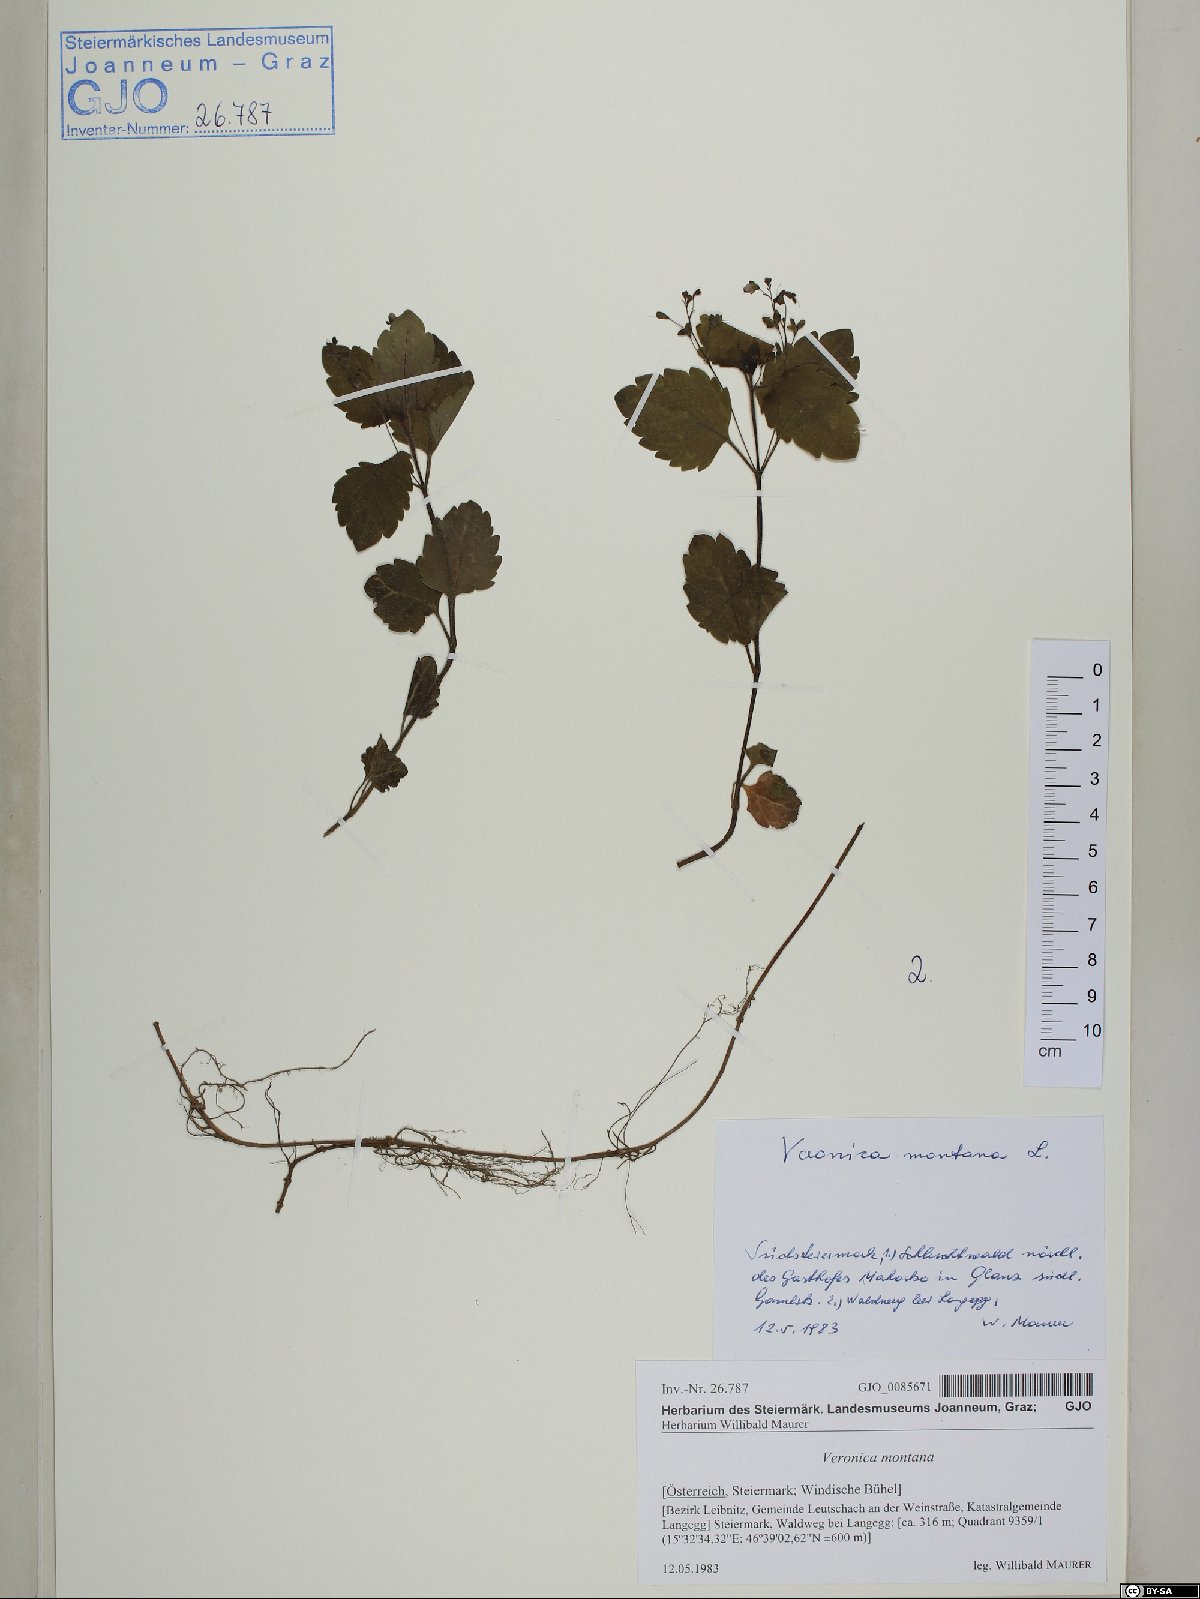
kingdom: Plantae
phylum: Tracheophyta
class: Magnoliopsida
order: Lamiales
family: Plantaginaceae
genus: Veronica
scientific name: Veronica montana
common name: Wood speedwell
